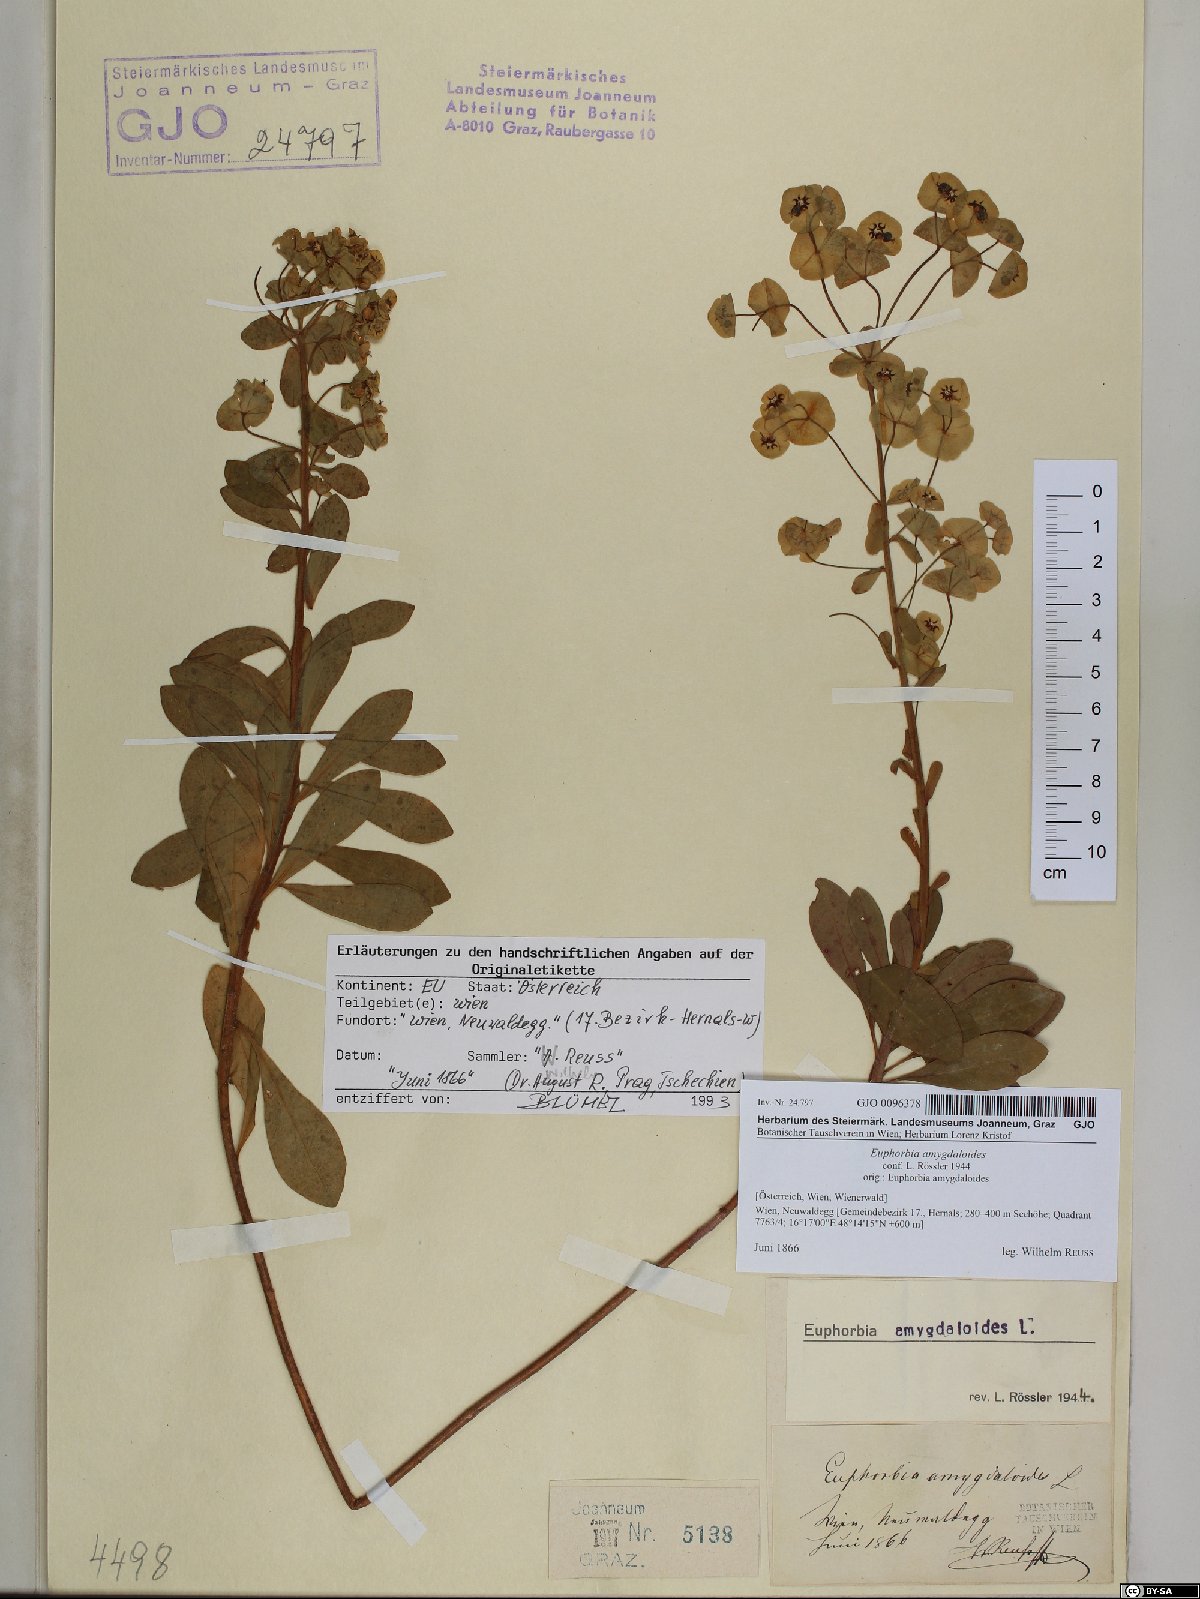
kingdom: Plantae
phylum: Tracheophyta
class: Magnoliopsida
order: Malpighiales
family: Euphorbiaceae
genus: Euphorbia
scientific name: Euphorbia amygdaloides
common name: Wood spurge
